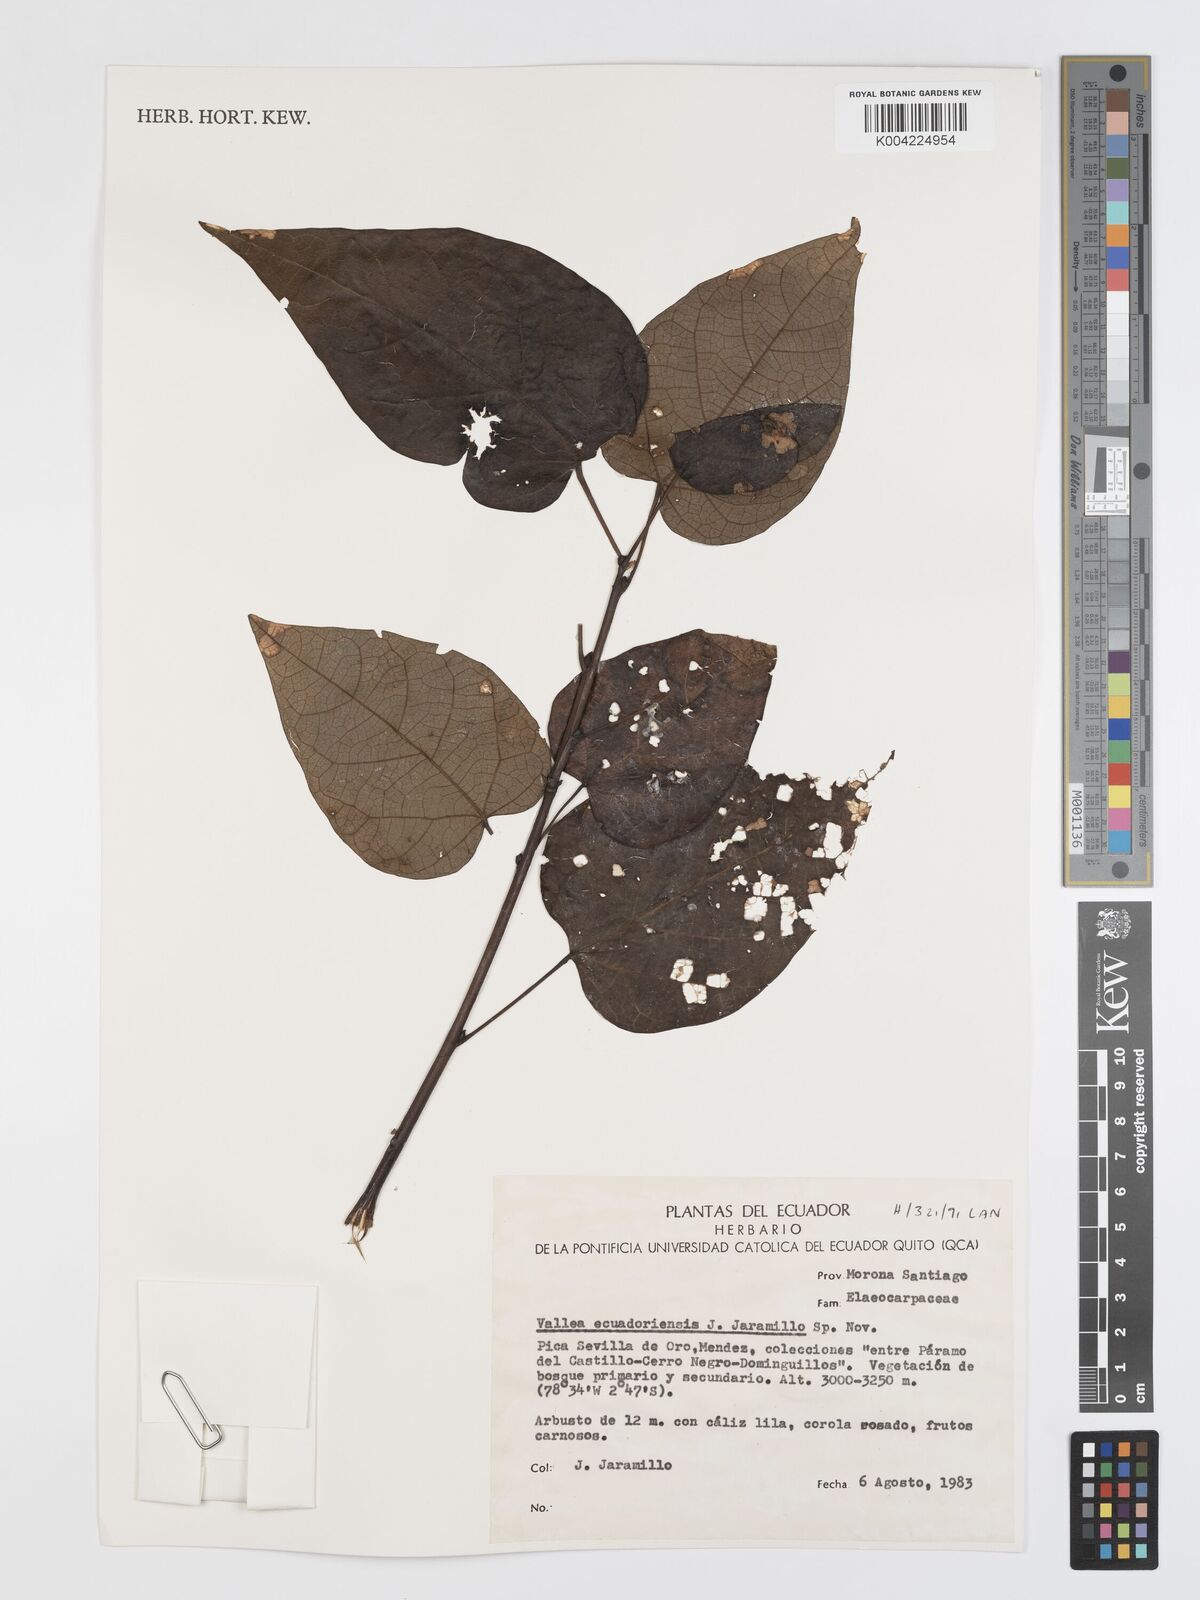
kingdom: Plantae
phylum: Tracheophyta
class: Magnoliopsida
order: Oxalidales
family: Elaeocarpaceae
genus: Vallea
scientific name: Vallea stipularis
